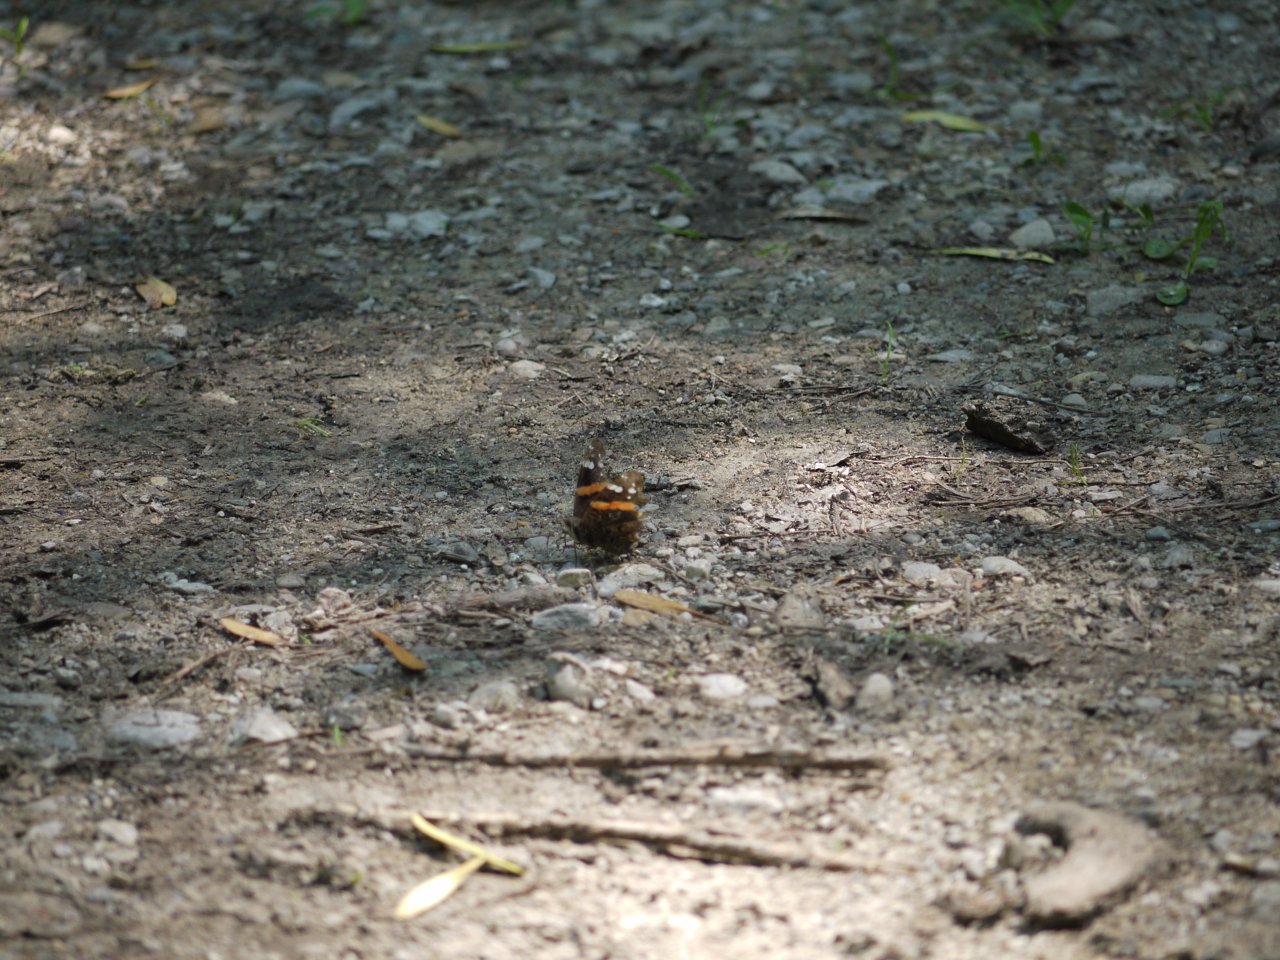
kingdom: Animalia
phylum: Arthropoda
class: Insecta
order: Lepidoptera
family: Nymphalidae
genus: Vanessa
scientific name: Vanessa atalanta
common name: Red Admiral
